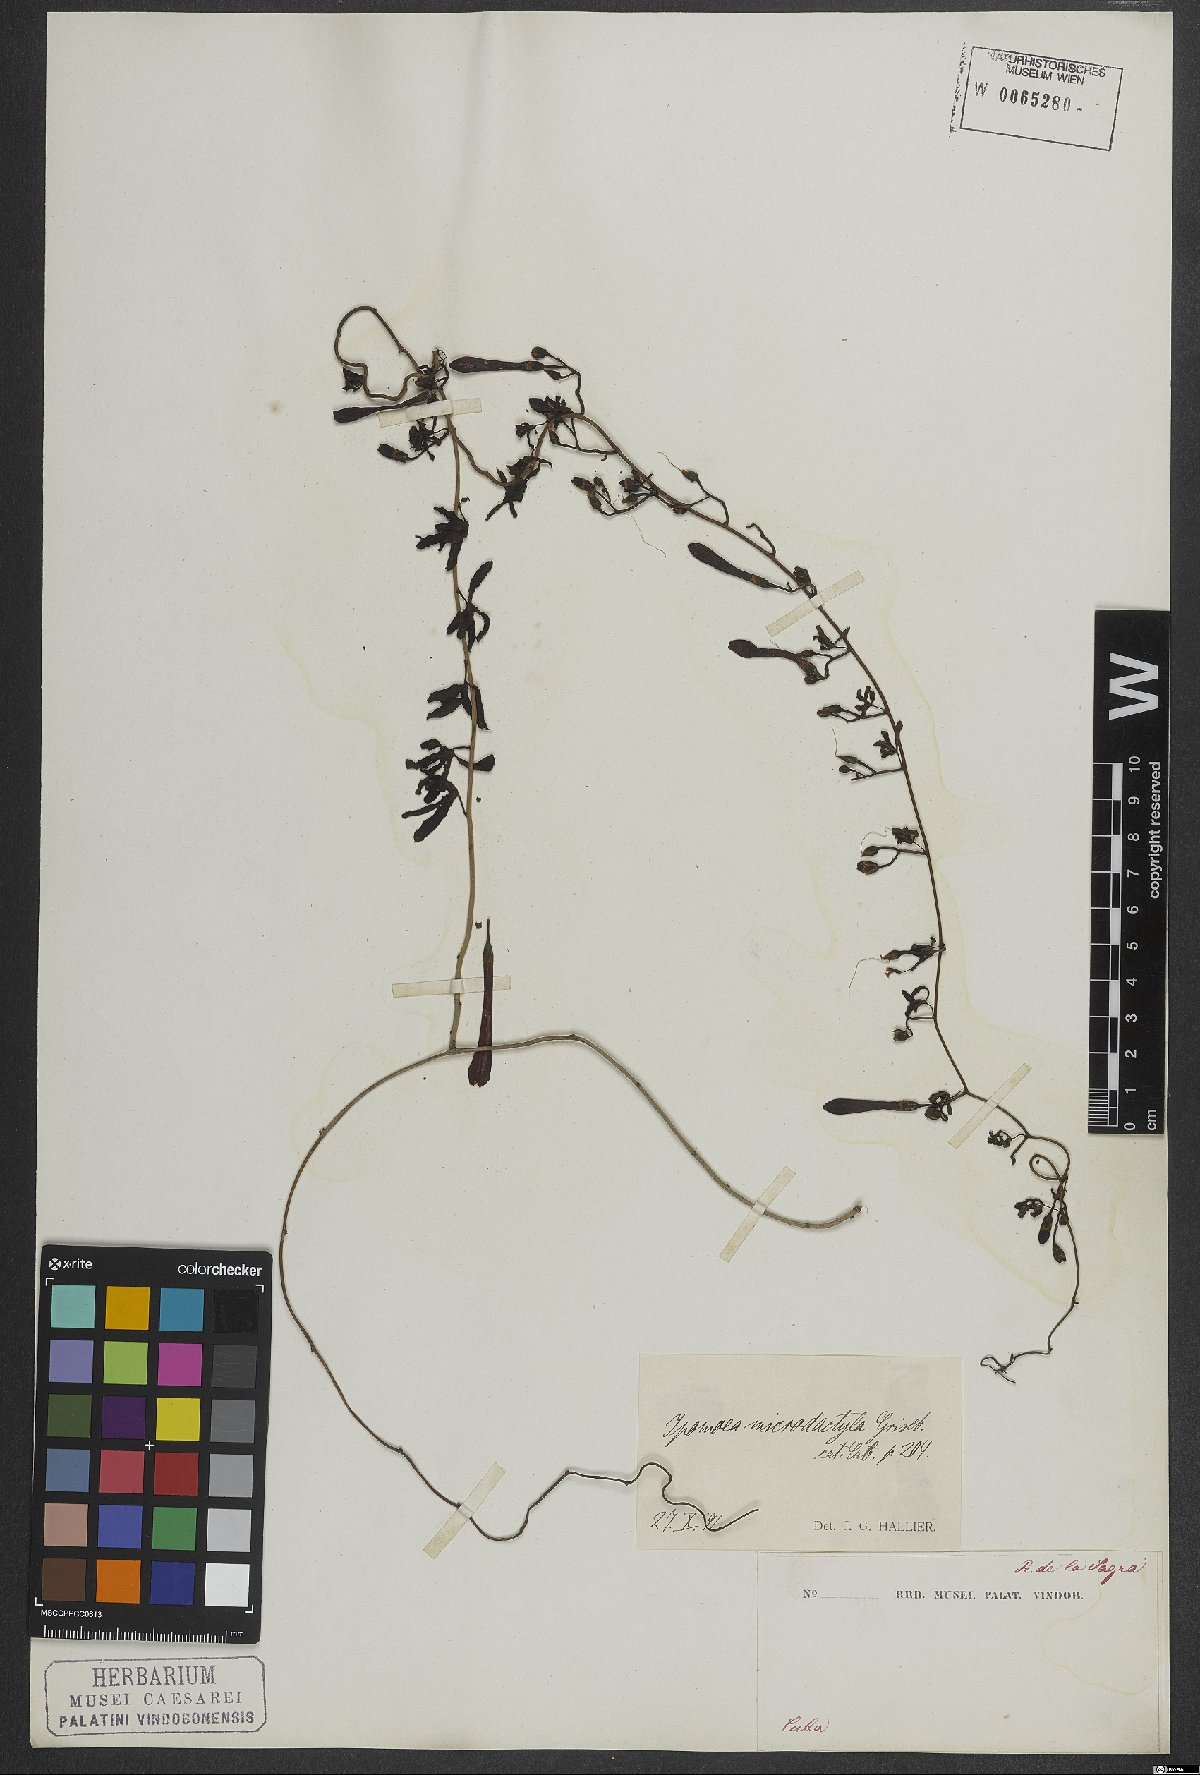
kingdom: Plantae
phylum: Tracheophyta
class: Magnoliopsida
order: Solanales
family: Convolvulaceae
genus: Ipomoea
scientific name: Ipomoea microdactyla
